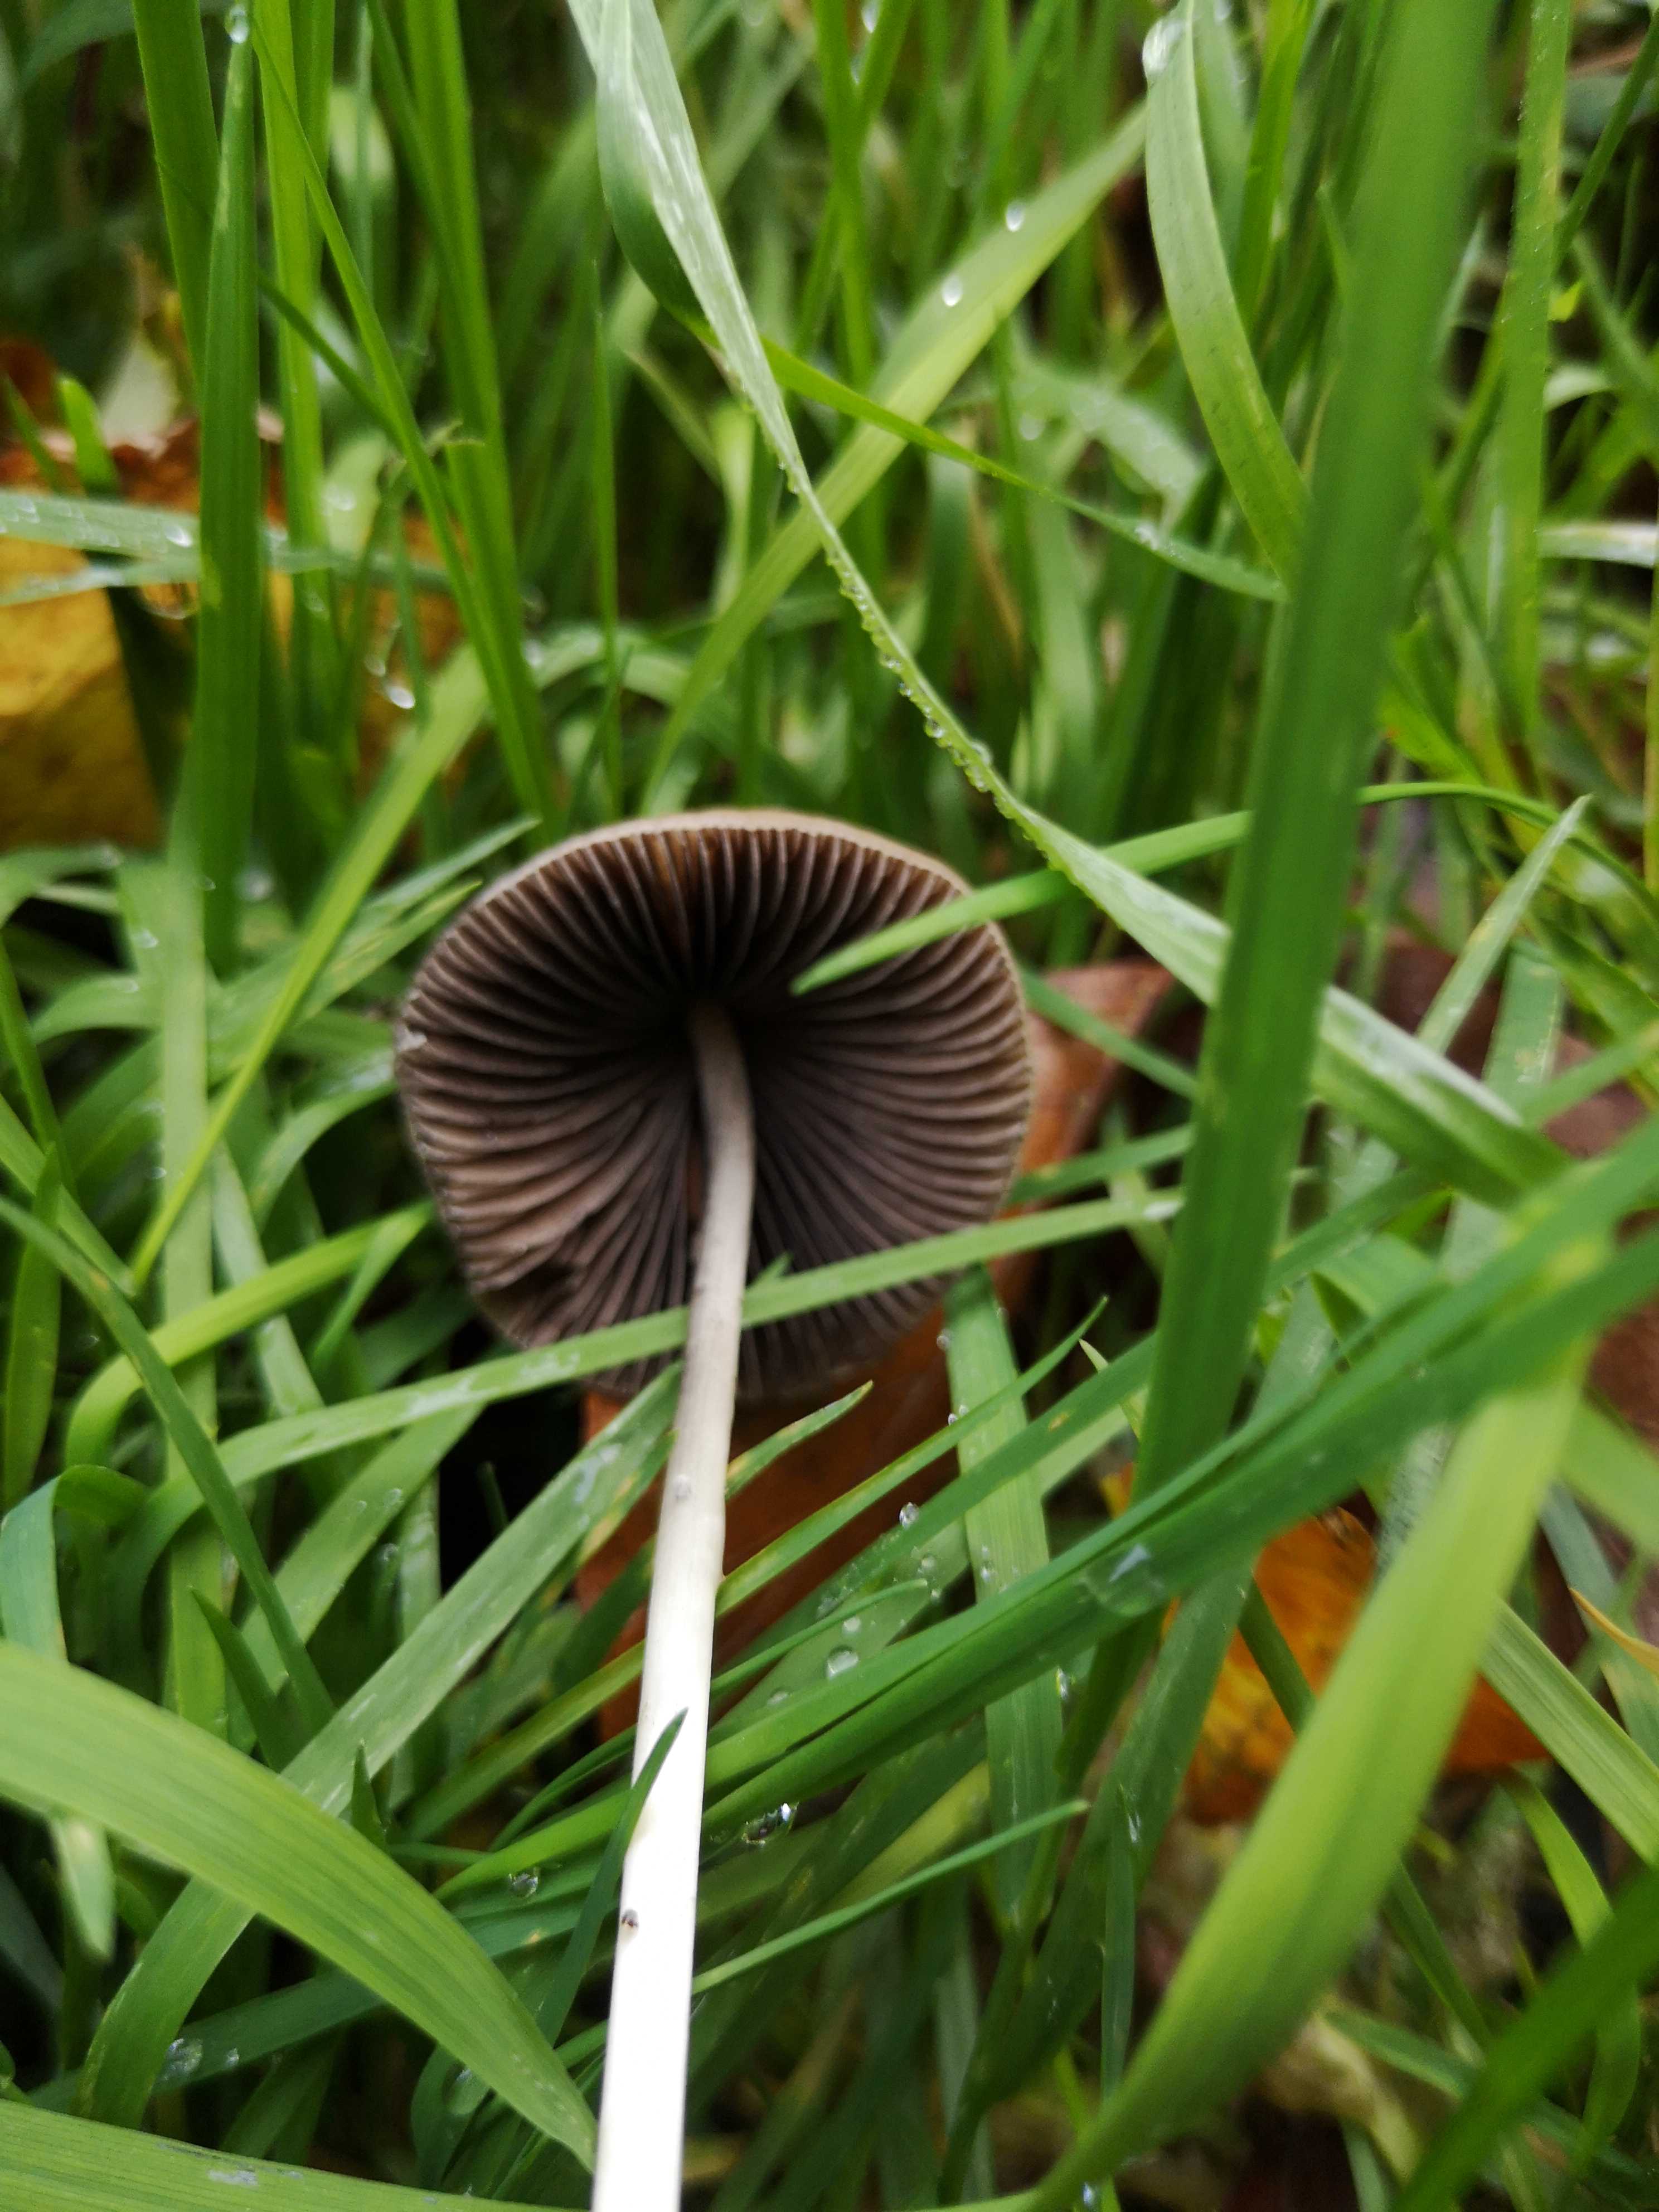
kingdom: Fungi
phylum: Basidiomycota
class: Agaricomycetes
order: Agaricales
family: Psathyrellaceae
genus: Parasola
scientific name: Parasola conopilea
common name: kegle-hjulhat
